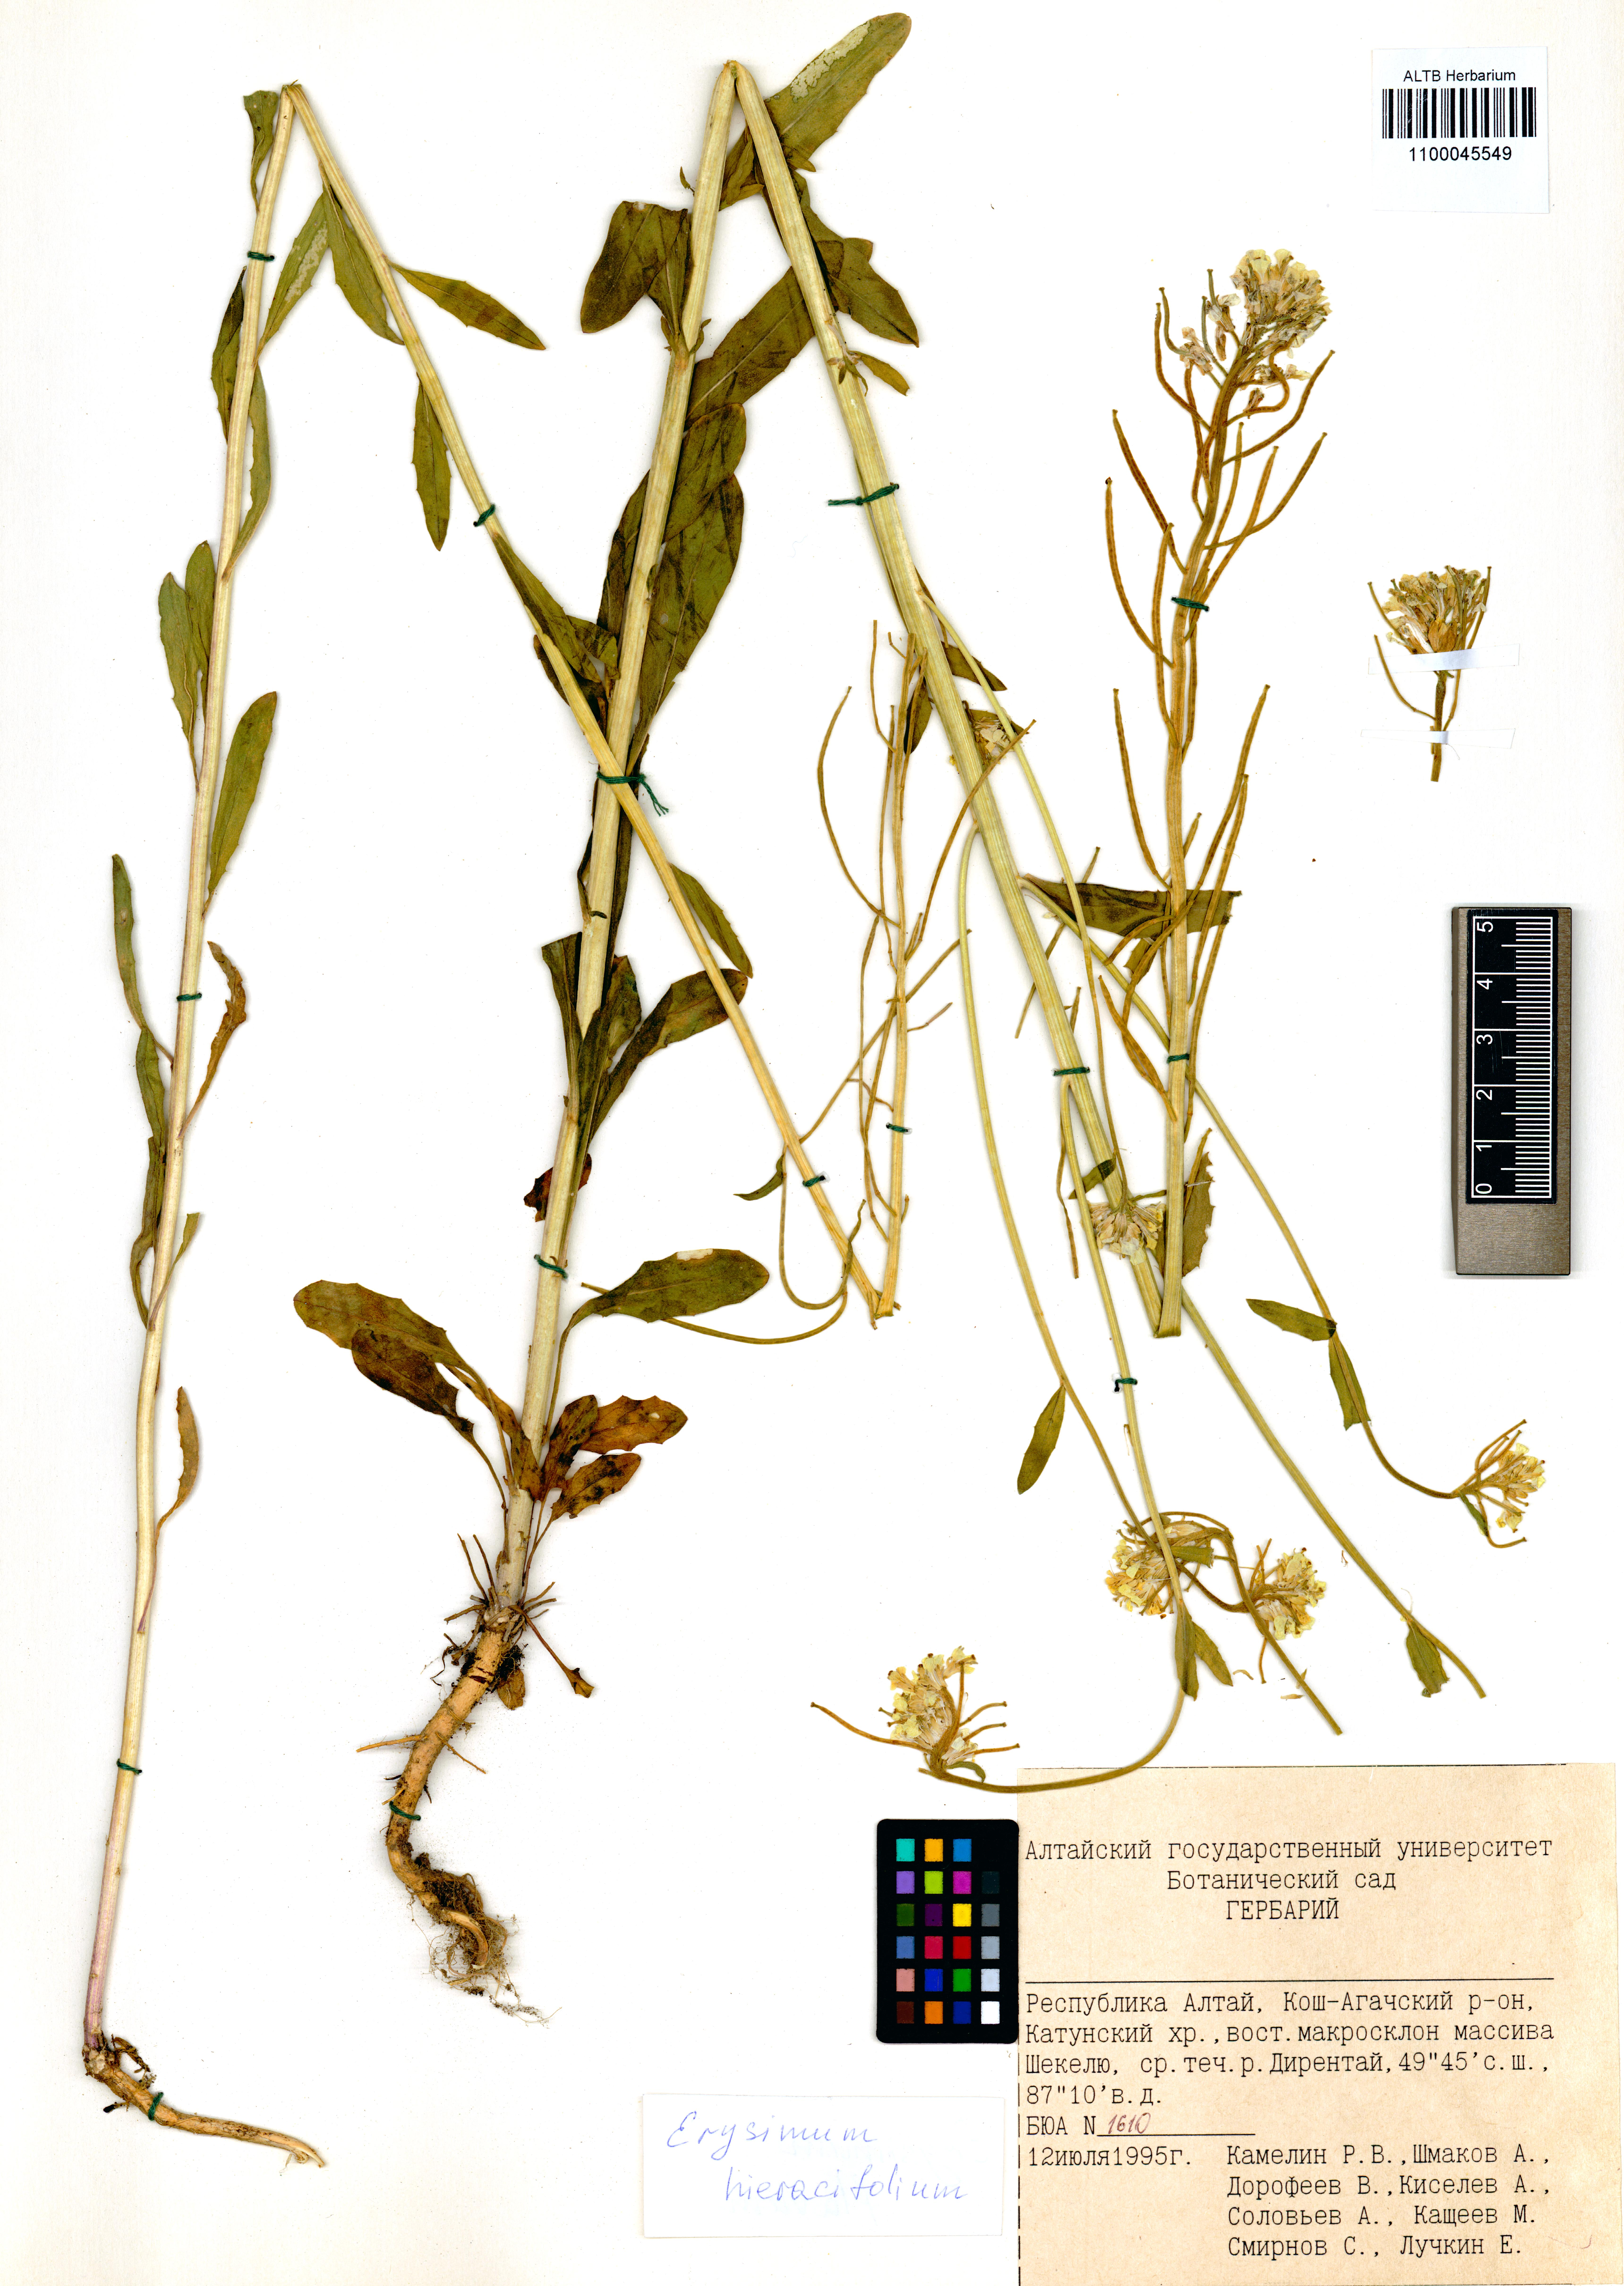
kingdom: Plantae
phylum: Tracheophyta
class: Magnoliopsida
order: Brassicales
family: Brassicaceae
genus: Erysimum
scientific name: Erysimum hieraciifolium
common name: European wallflower
